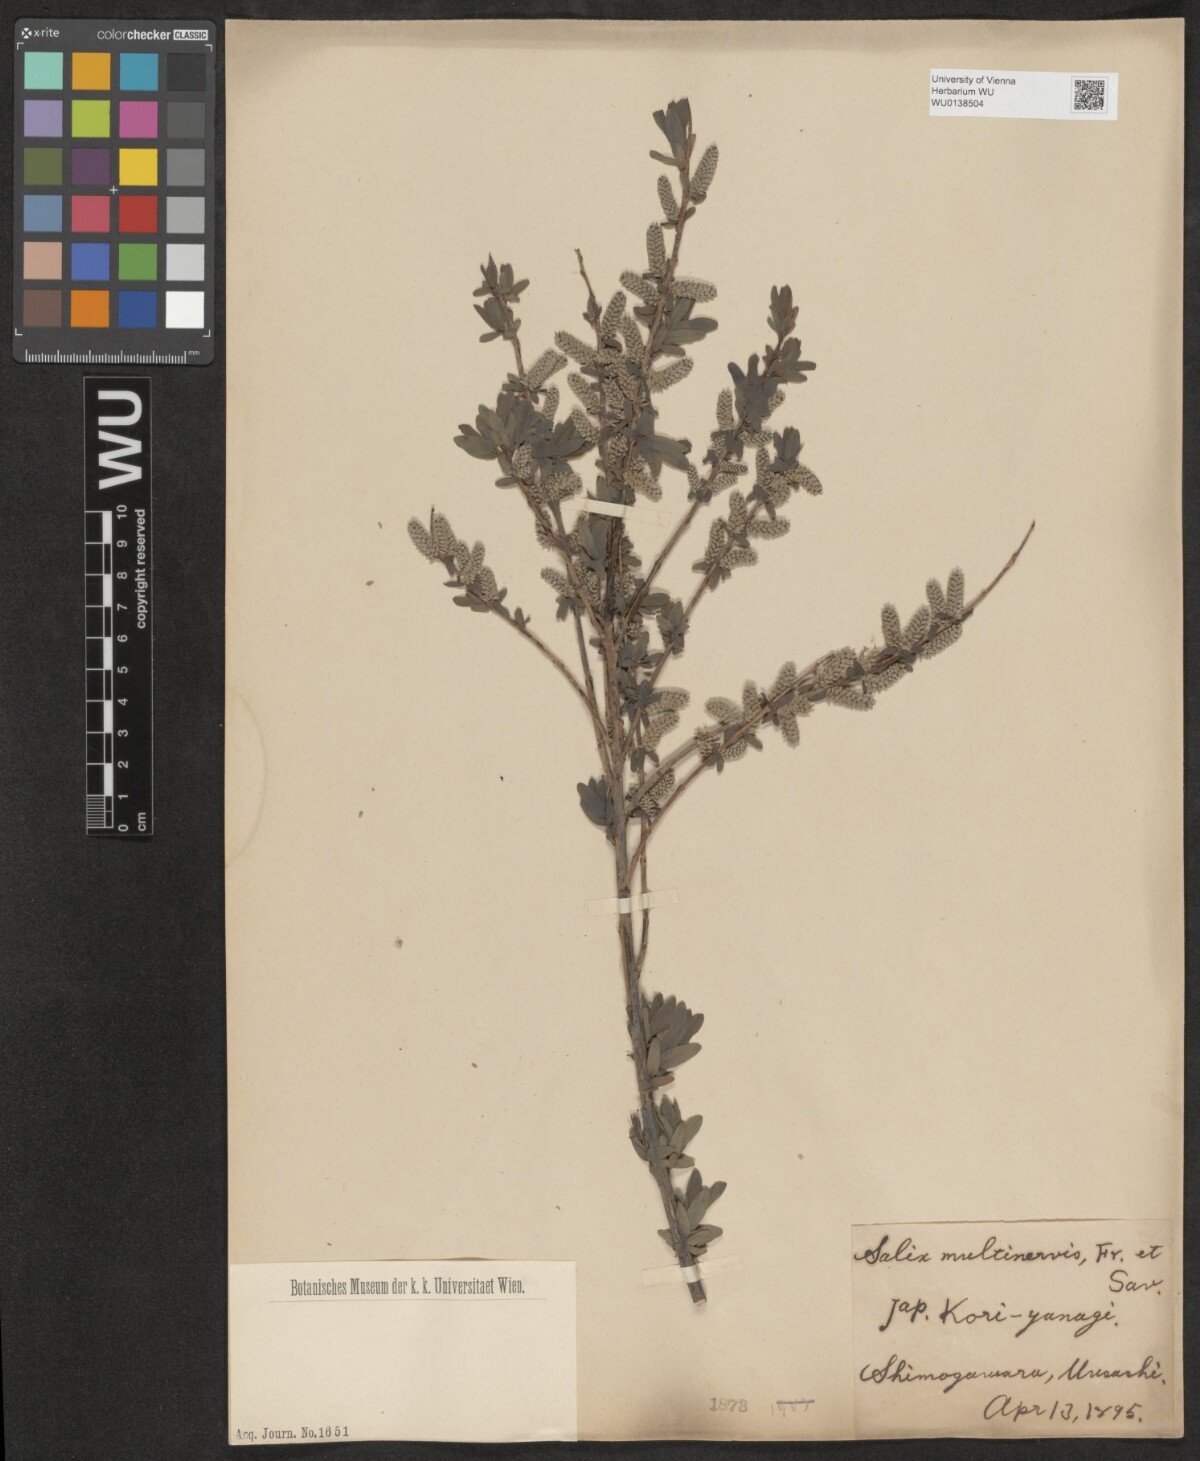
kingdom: Plantae
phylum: Tracheophyta
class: Magnoliopsida
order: Malpighiales
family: Salicaceae
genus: Salix
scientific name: Salix multinervis
